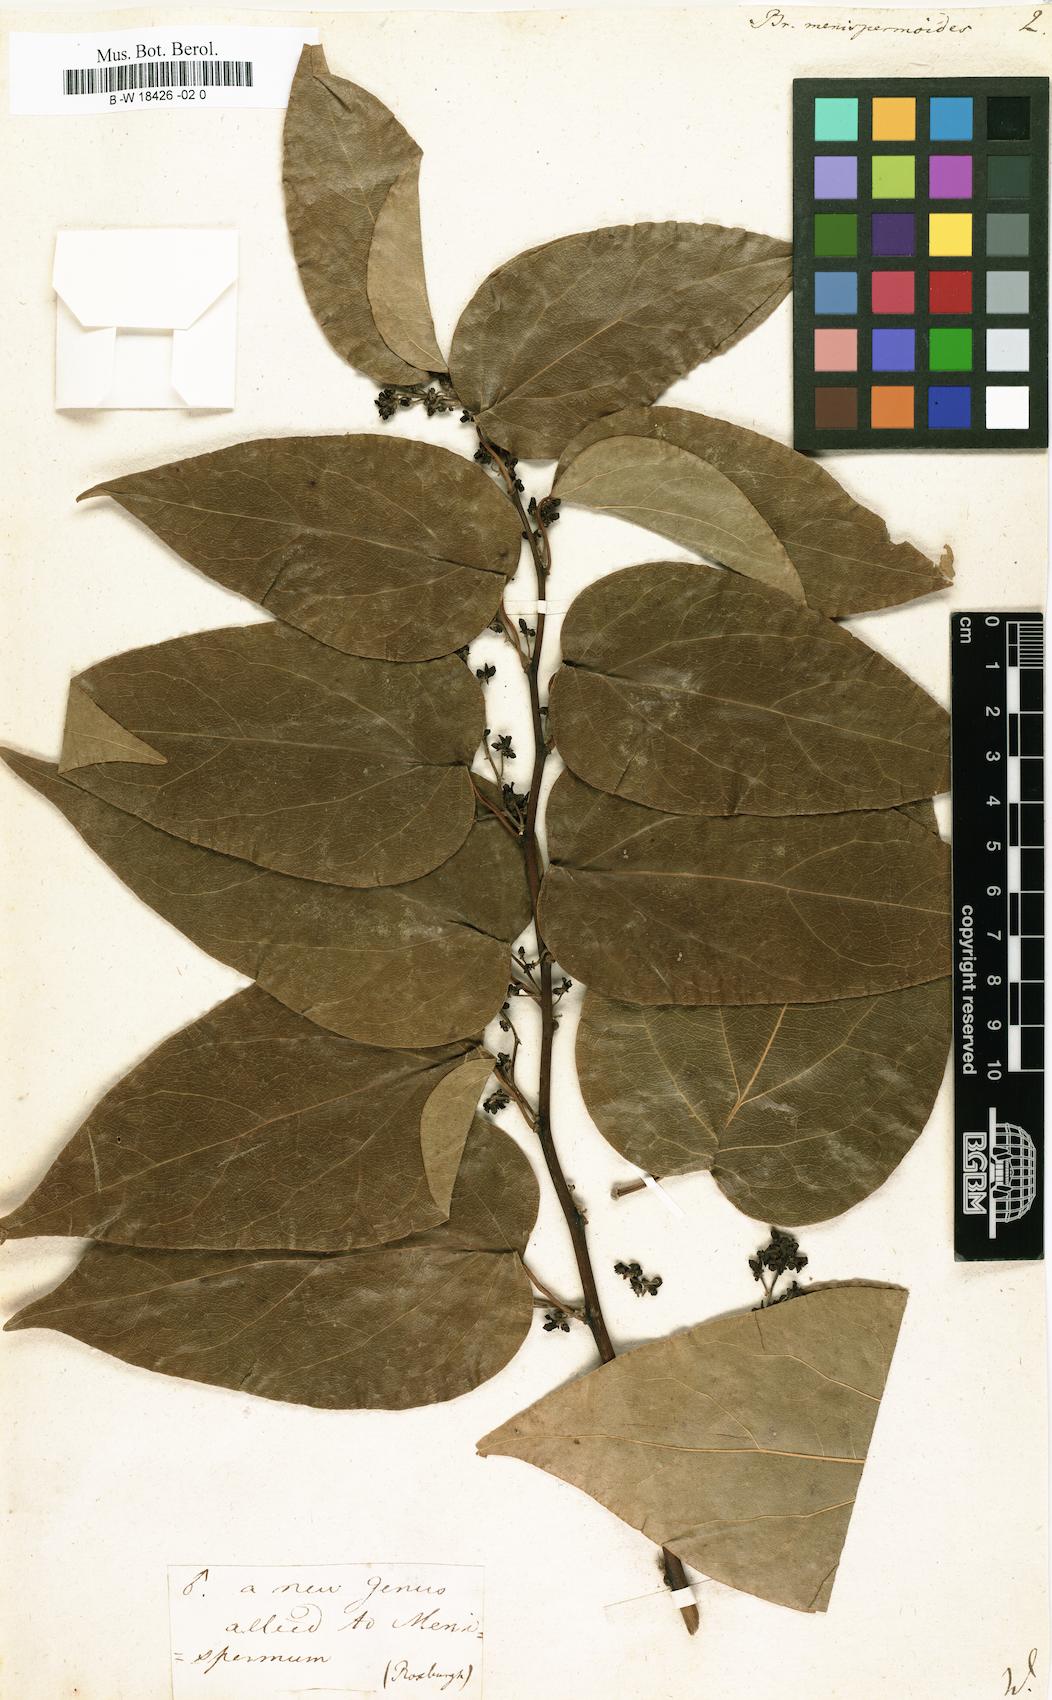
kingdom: Plantae
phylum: Tracheophyta
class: Magnoliopsida
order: Ranunculales
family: Menispermaceae
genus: Tiliacora
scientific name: Tiliacora acuminata
